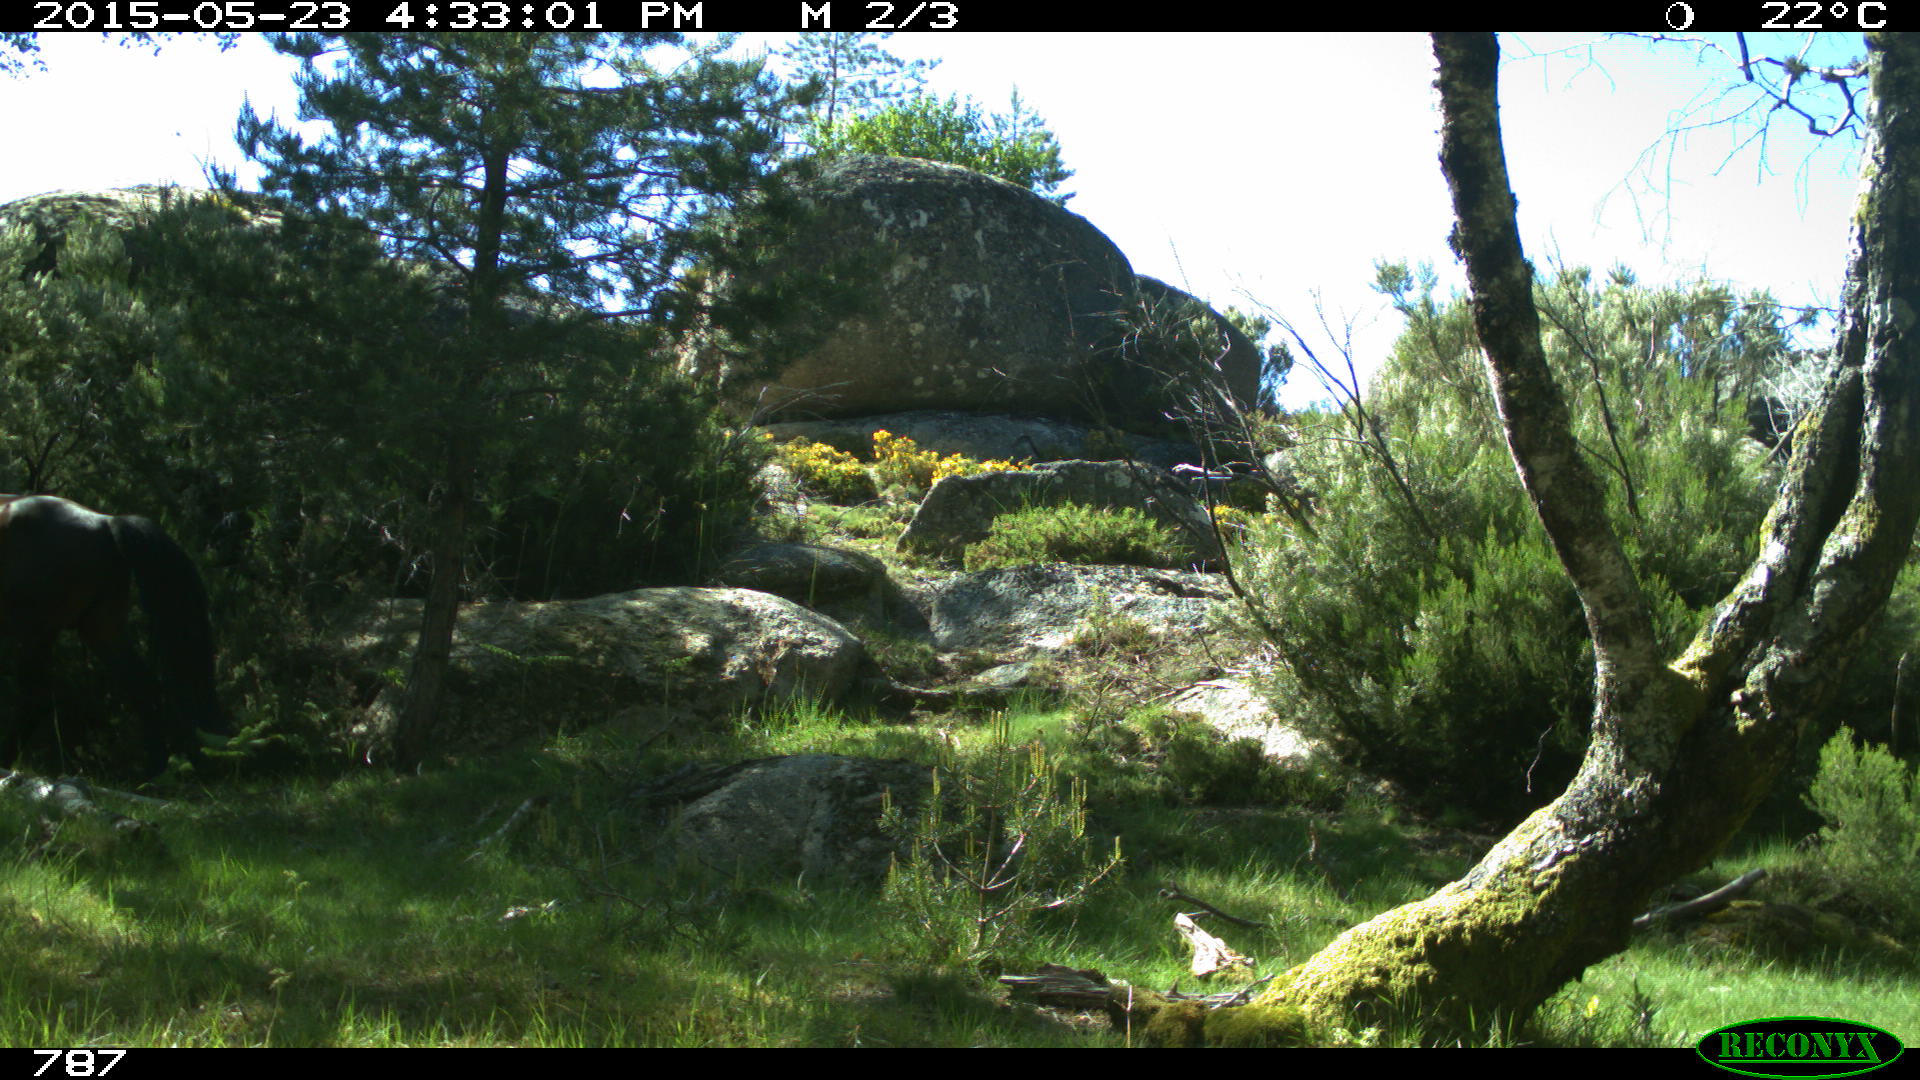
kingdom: Animalia
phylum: Chordata
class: Mammalia
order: Perissodactyla
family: Equidae
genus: Equus
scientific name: Equus caballus
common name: Horse
